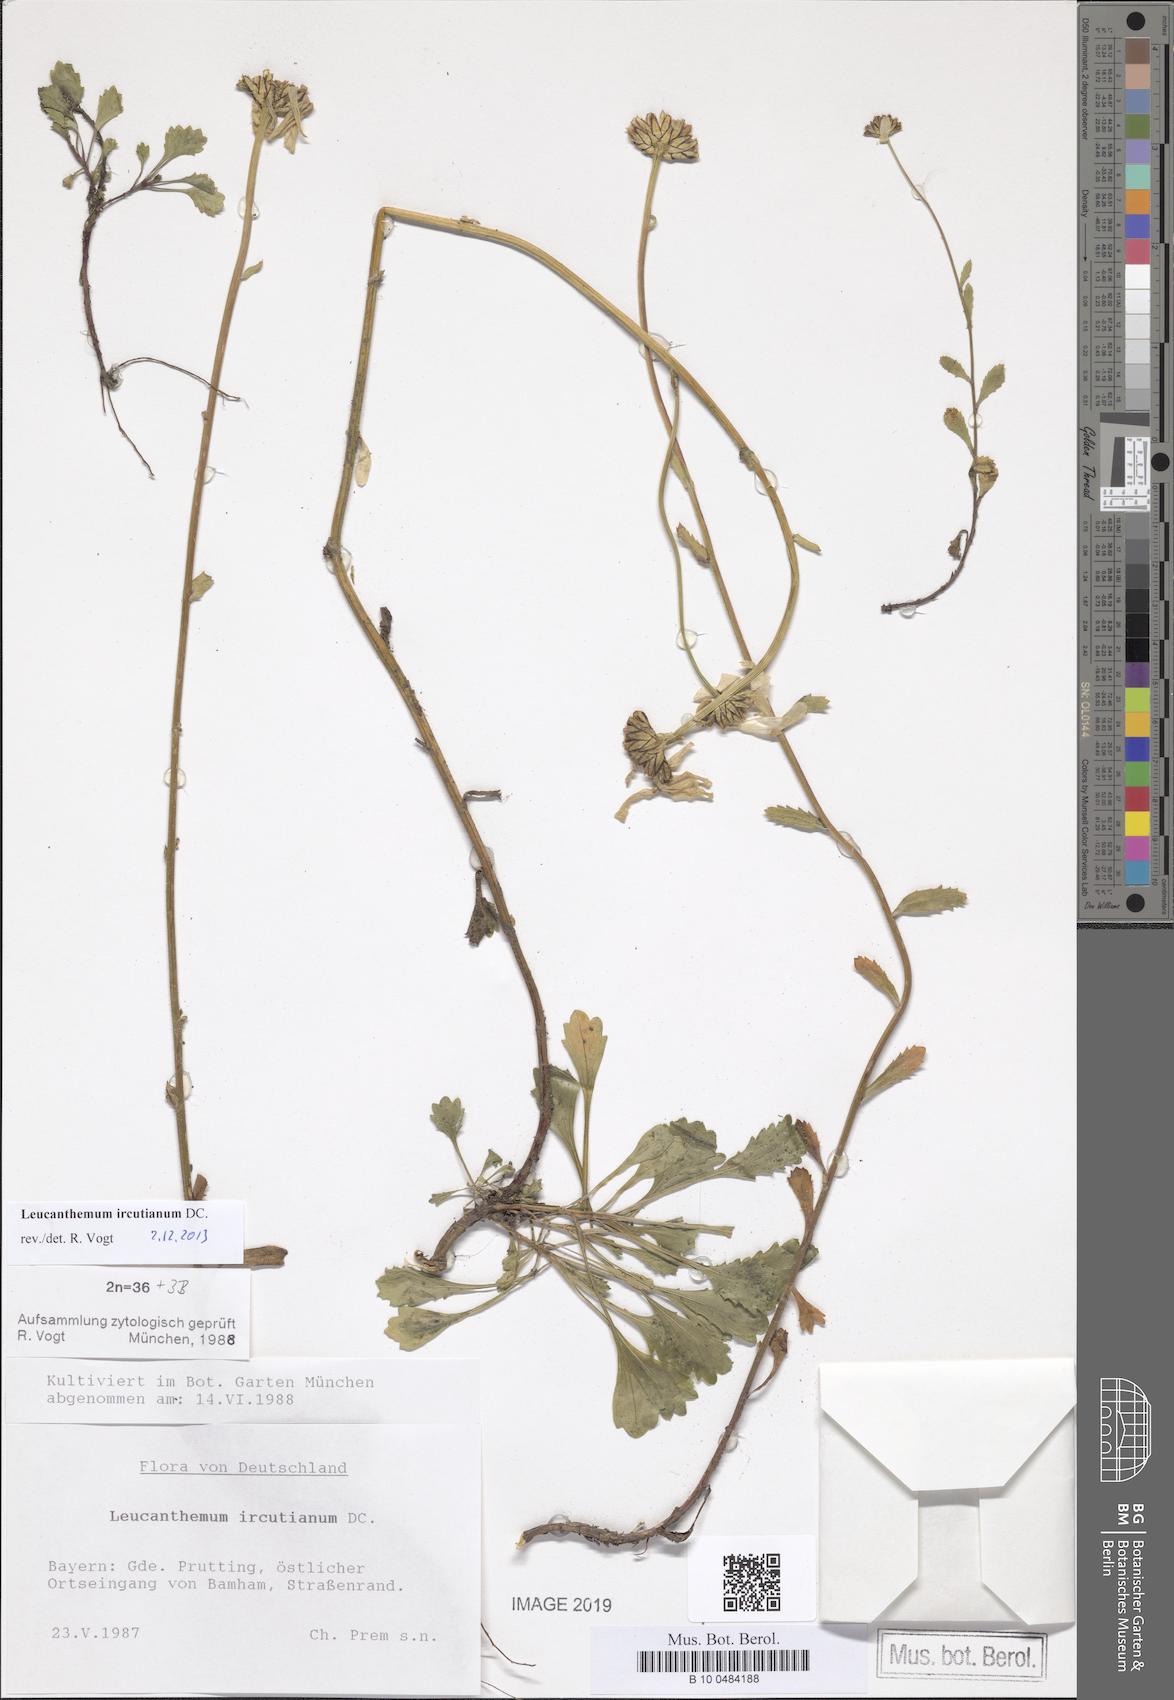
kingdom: Plantae
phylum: Tracheophyta
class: Magnoliopsida
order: Asterales
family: Asteraceae
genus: Leucanthemum
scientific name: Leucanthemum ircutianum
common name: Daisy
